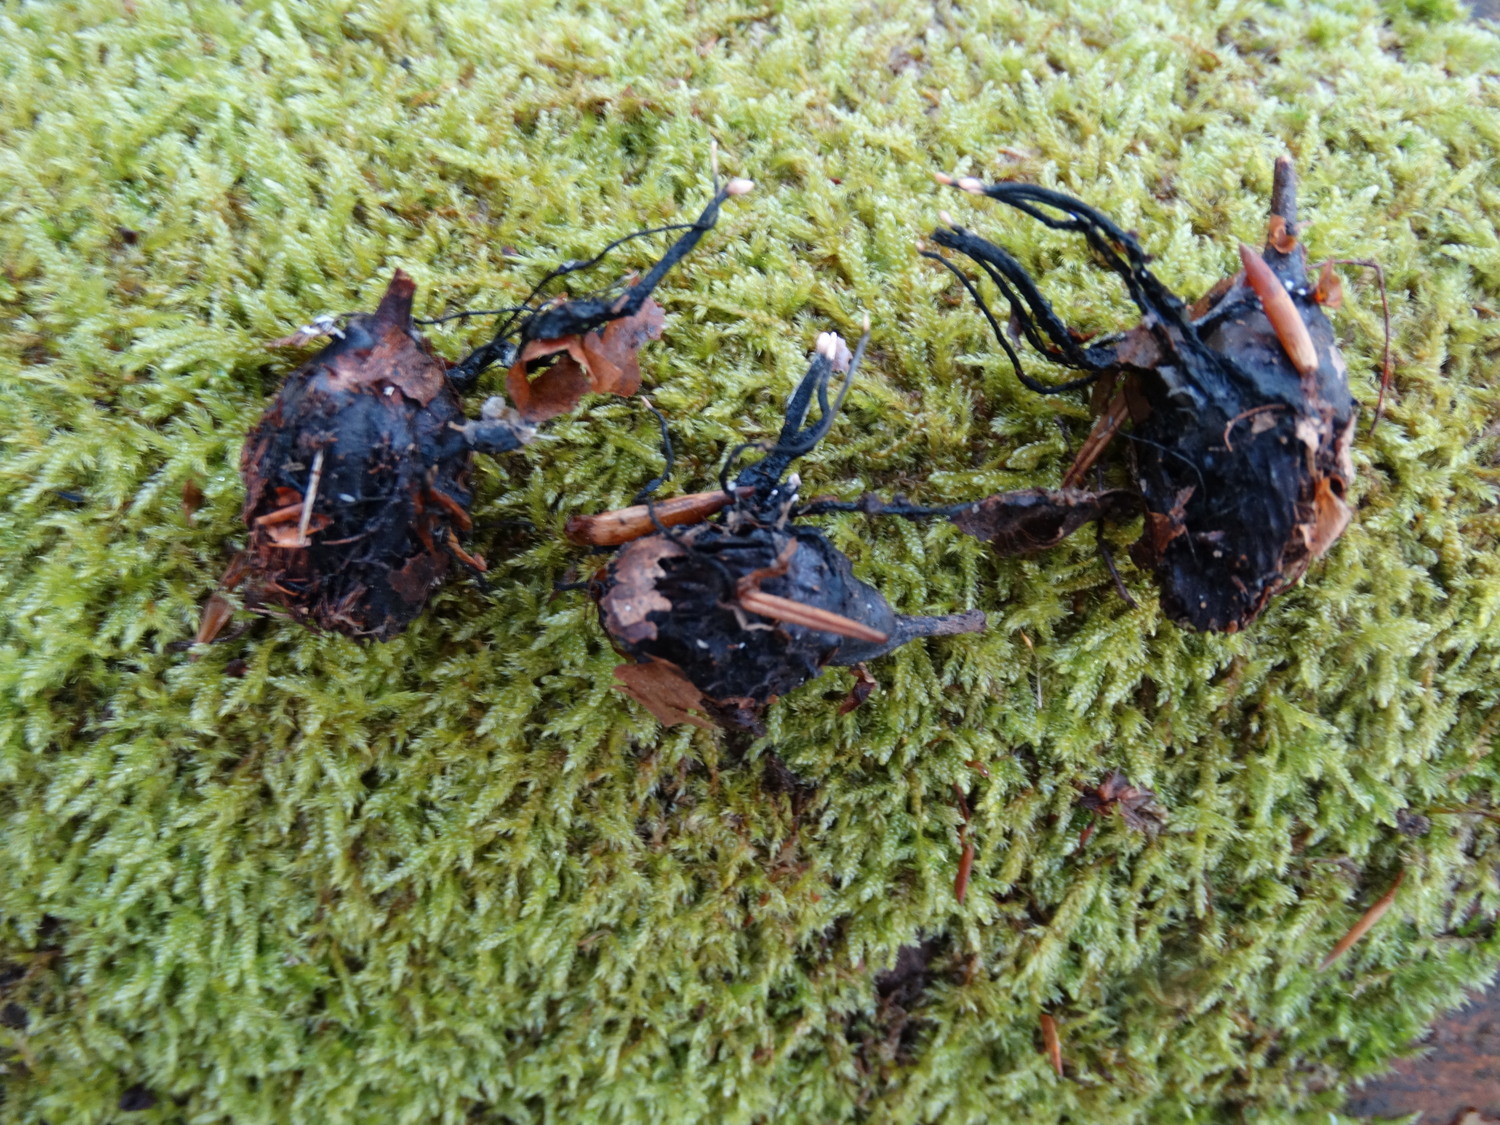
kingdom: Fungi
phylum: Ascomycota
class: Sordariomycetes
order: Xylariales
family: Xylariaceae
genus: Xylaria
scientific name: Xylaria carpophila
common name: bogskål-stødsvamp
